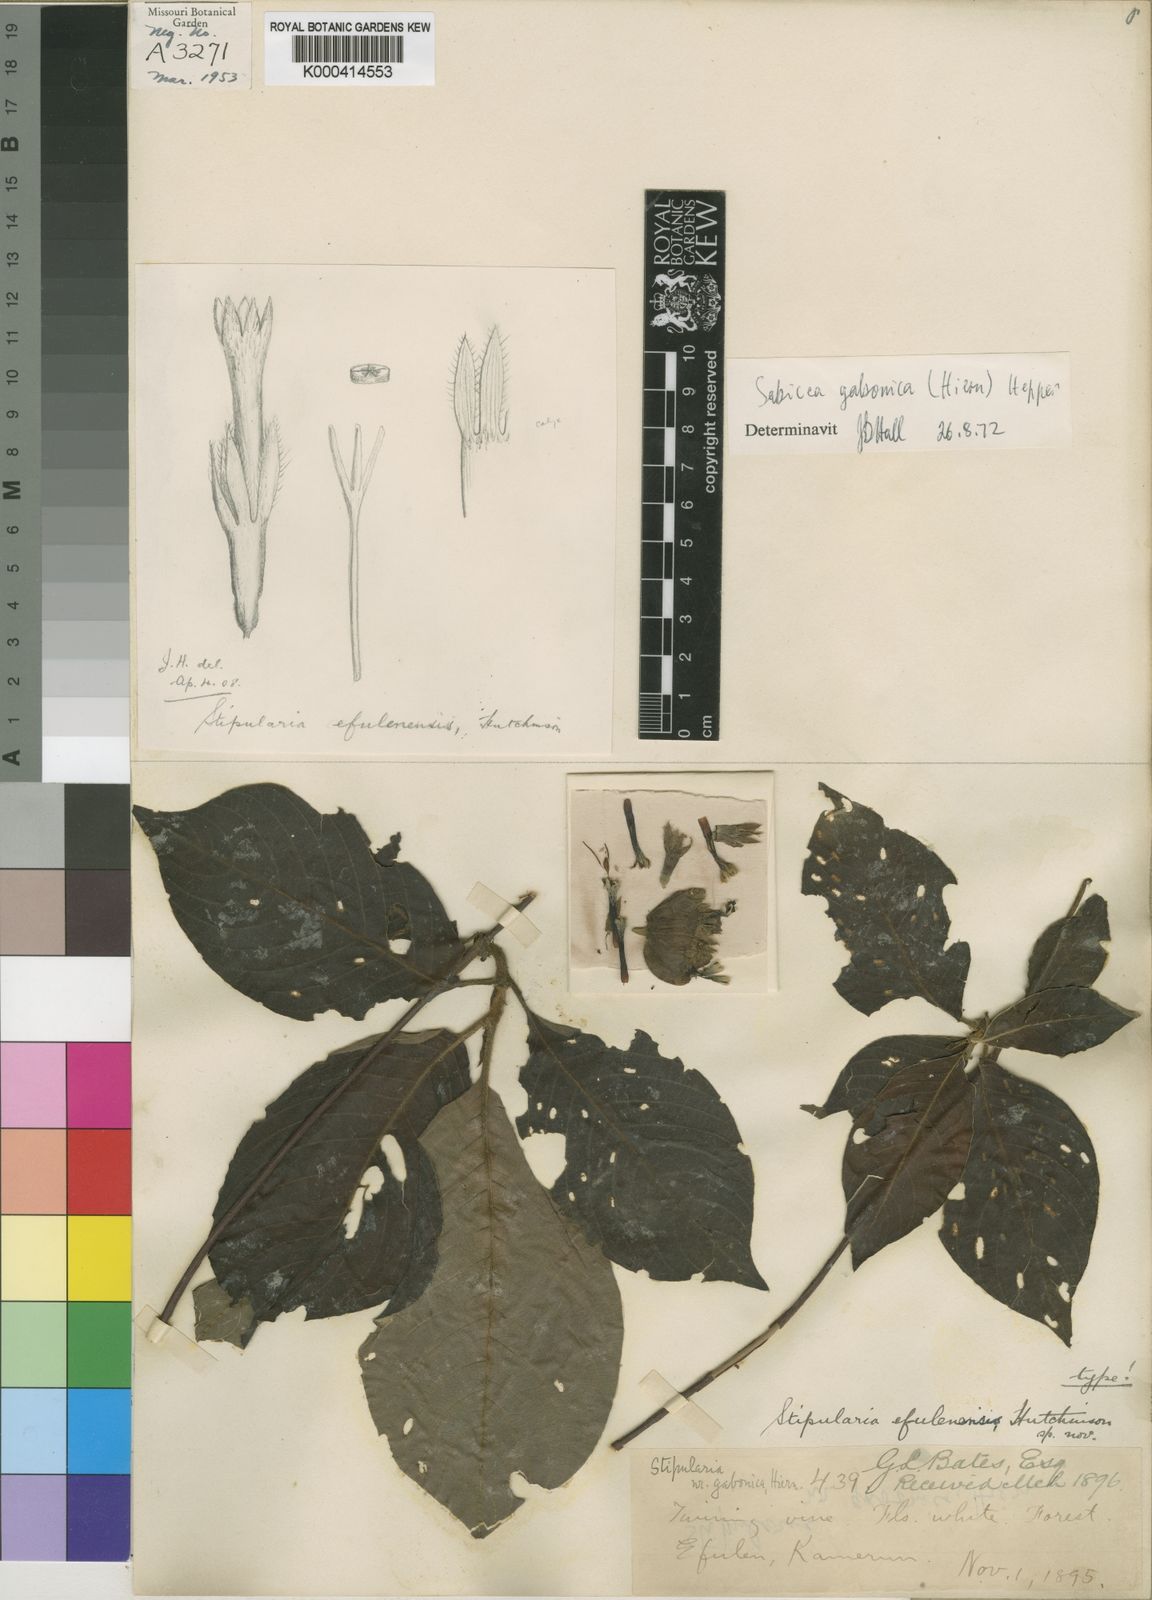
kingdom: Plantae
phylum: Tracheophyta
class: Magnoliopsida
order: Gentianales
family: Rubiaceae
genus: Sabicea
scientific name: Sabicea gabonica
